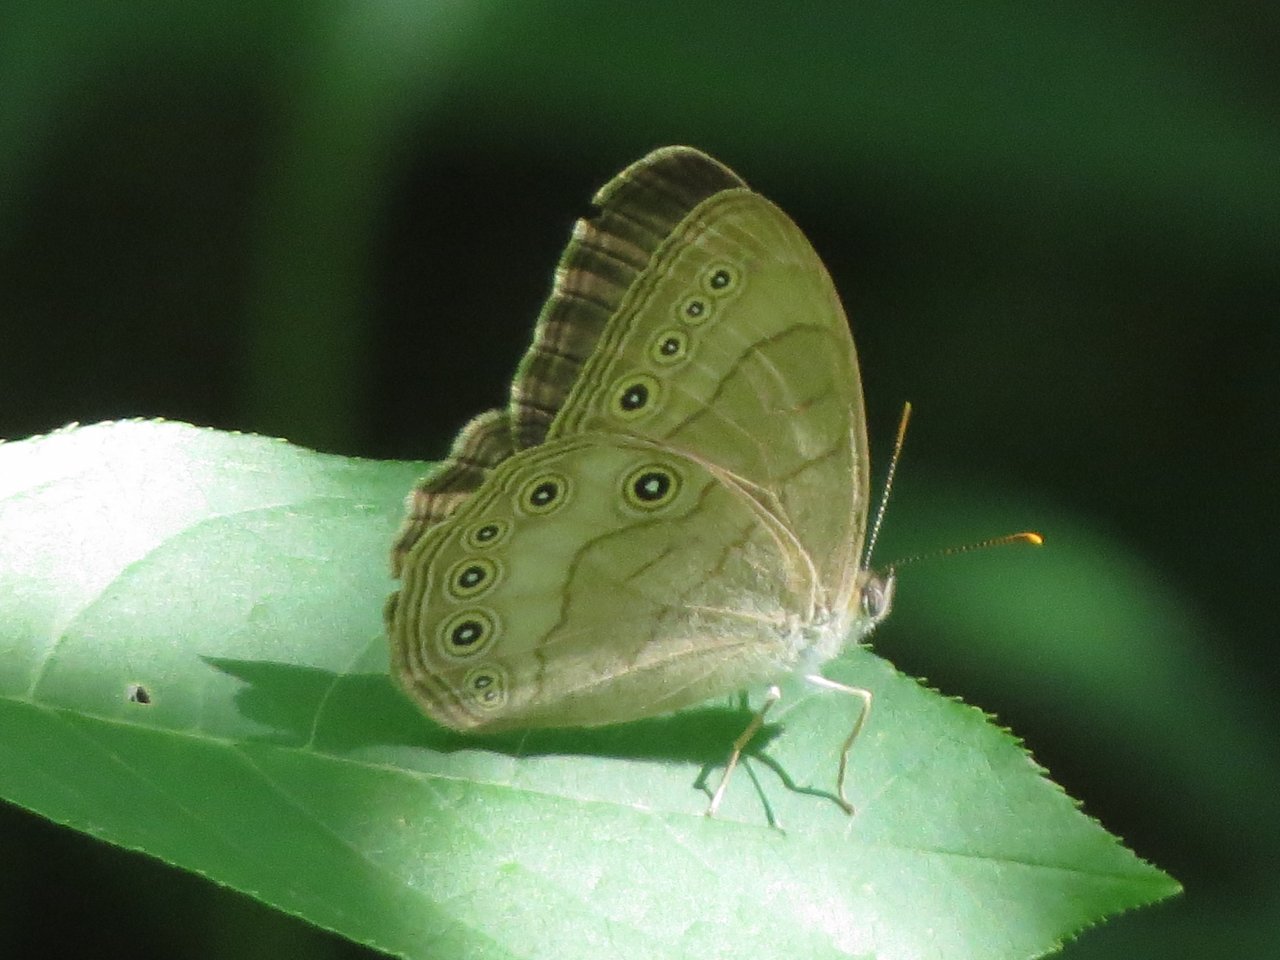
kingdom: Animalia
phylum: Arthropoda
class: Insecta
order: Lepidoptera
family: Nymphalidae
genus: Lethe
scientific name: Lethe eurydice
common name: Appalachian Eyed Brown
